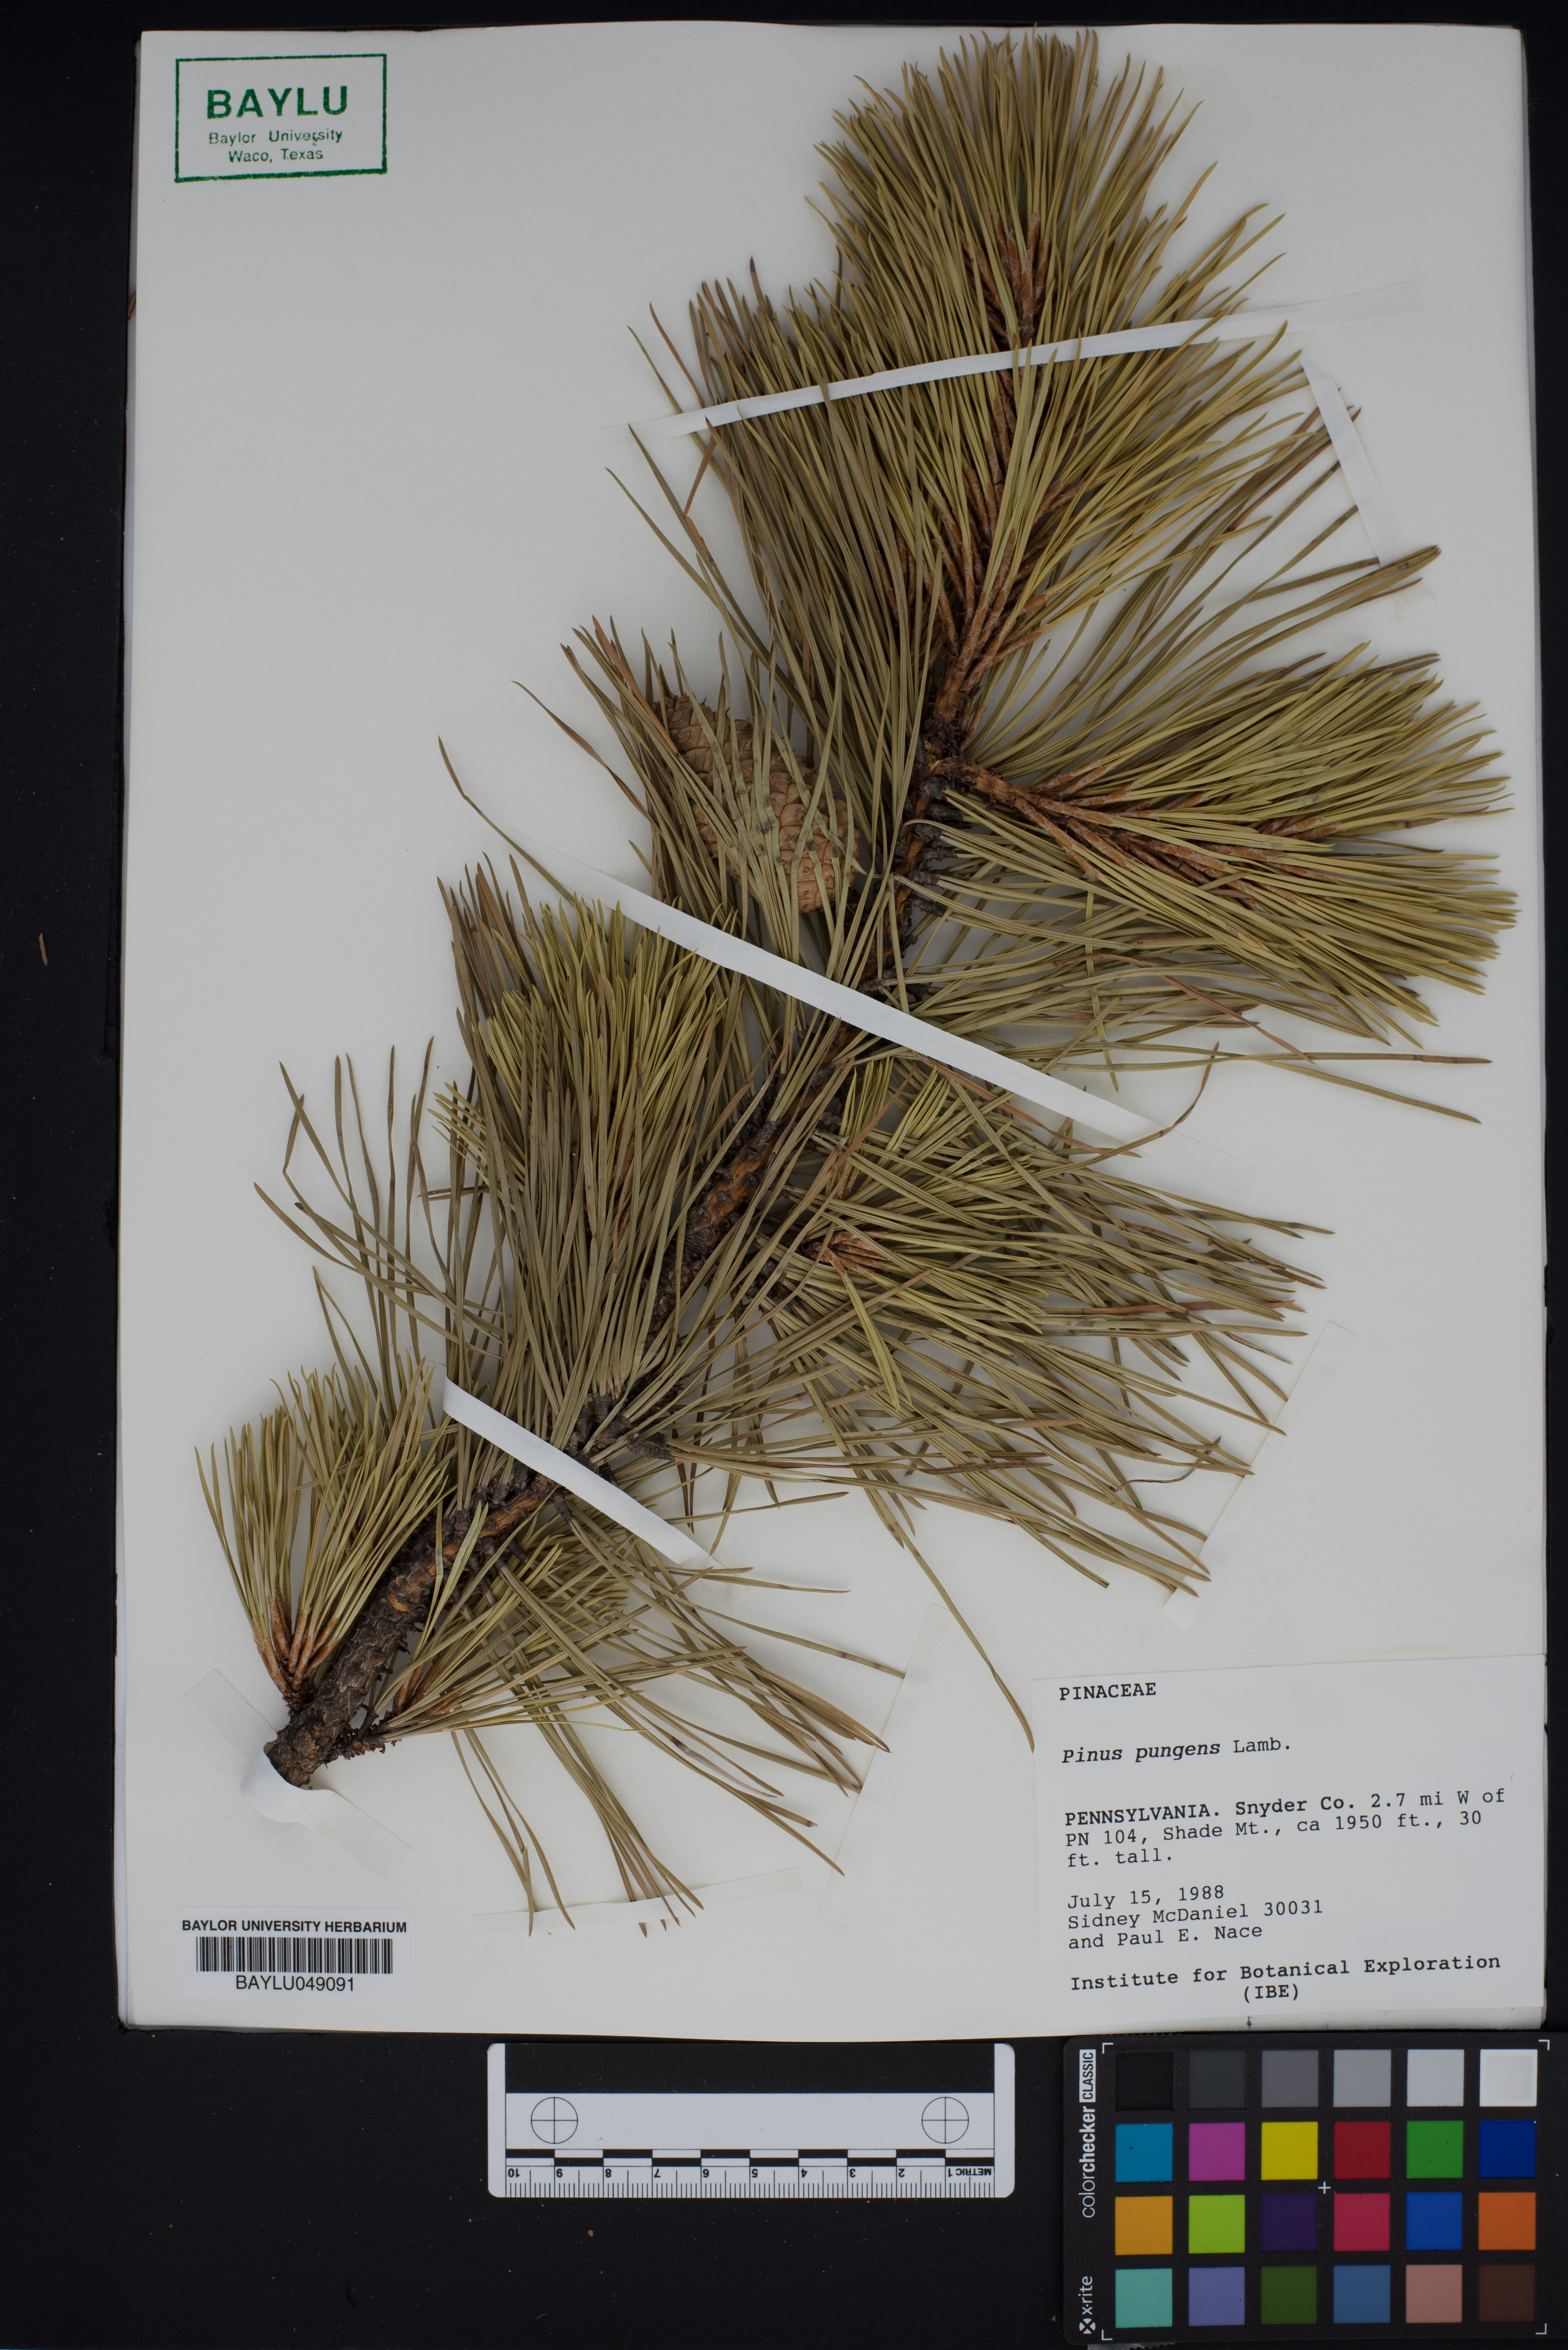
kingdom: Plantae
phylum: Tracheophyta
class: Pinopsida
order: Pinales
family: Pinaceae
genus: Pinus
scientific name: Pinus pungens
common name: Hickory pine
